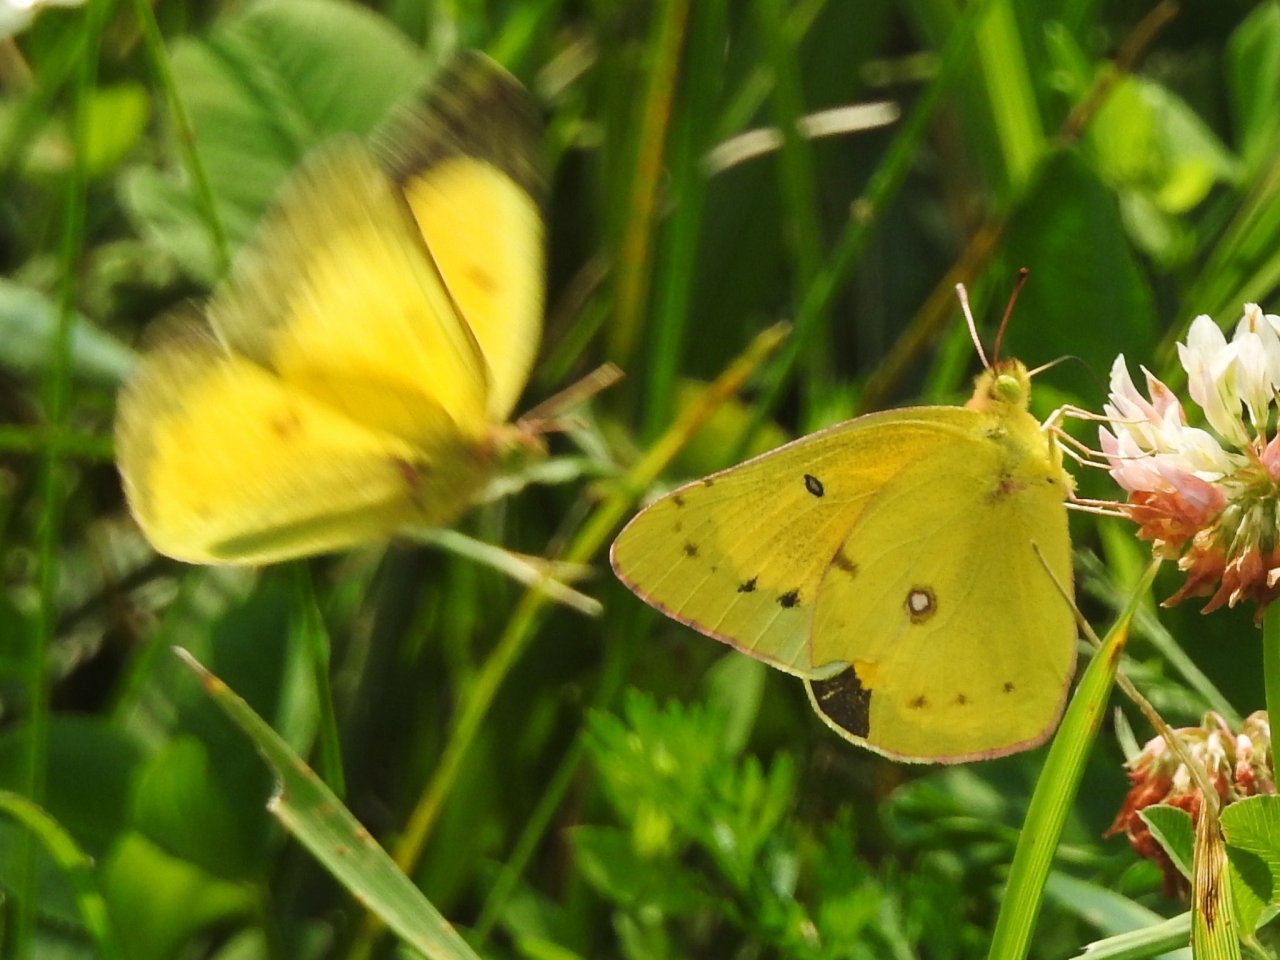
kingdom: Animalia
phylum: Arthropoda
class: Insecta
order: Lepidoptera
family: Pieridae
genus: Colias
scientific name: Colias eurytheme
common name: Orange Sulphur
